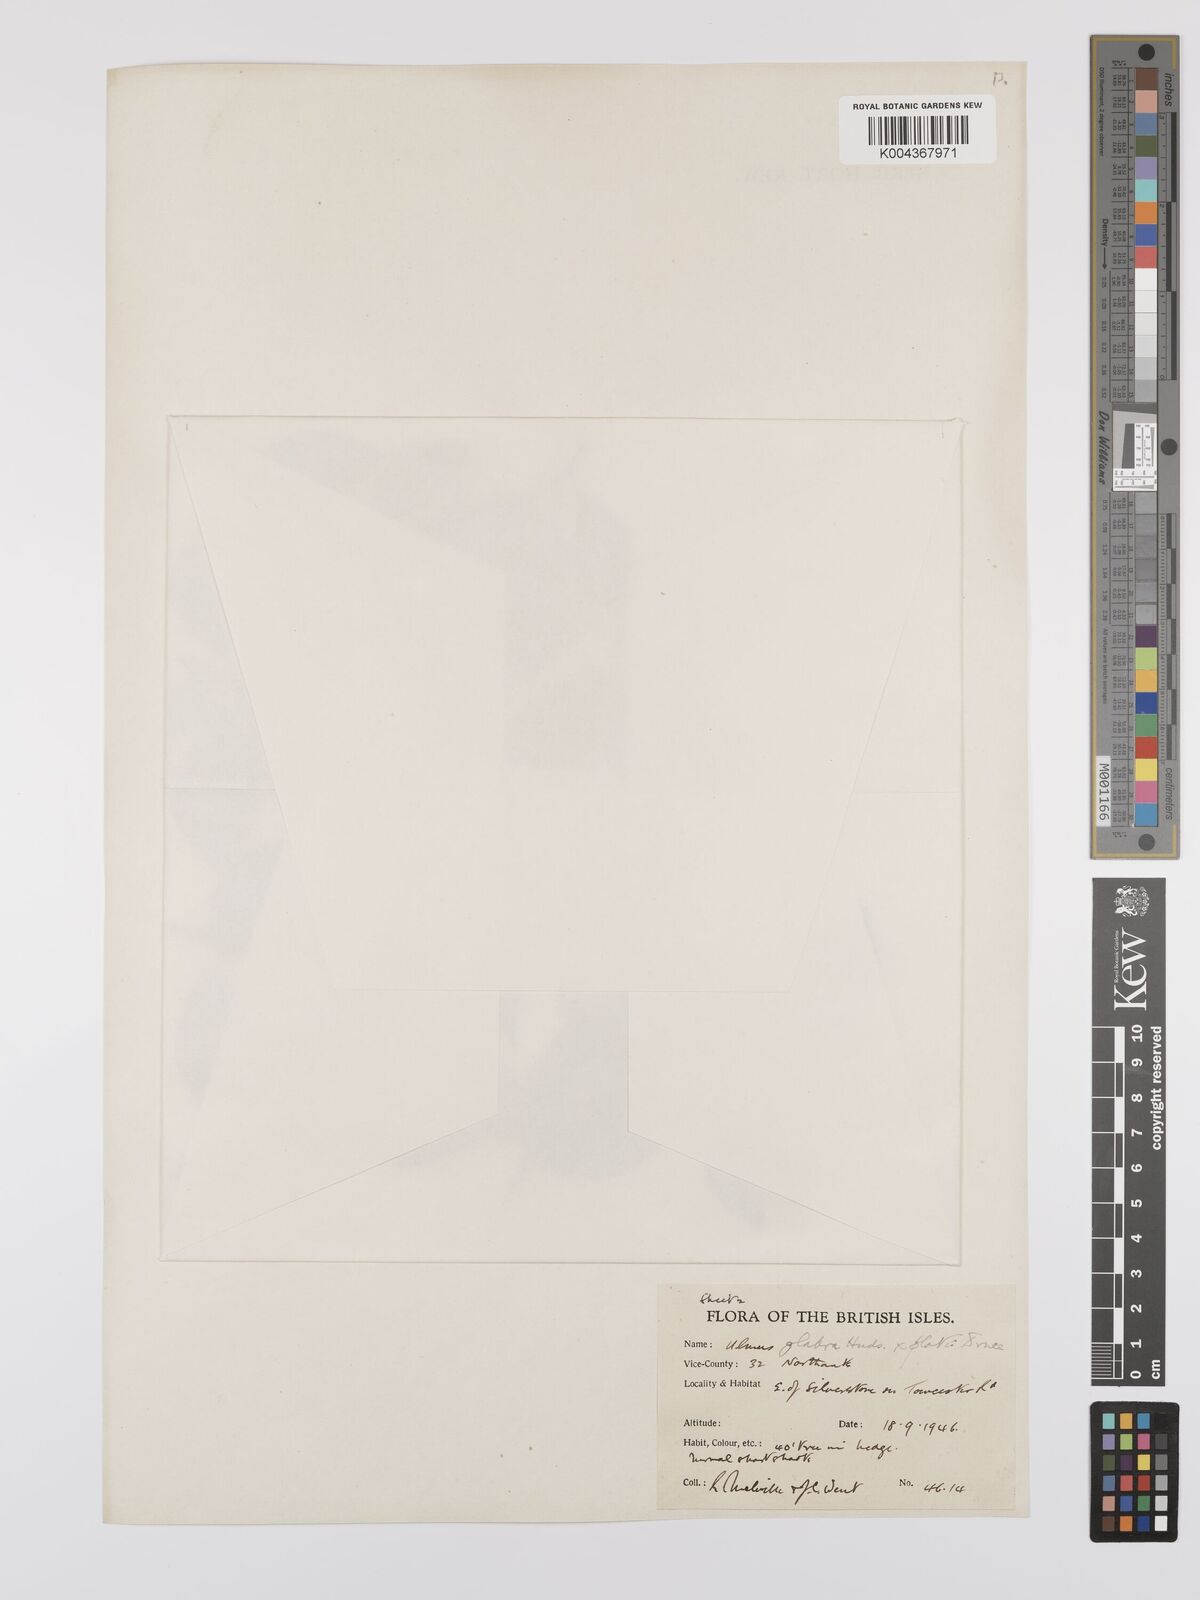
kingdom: Plantae
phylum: Tracheophyta
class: Magnoliopsida
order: Rosales
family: Ulmaceae
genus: Ulmus
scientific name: Ulmus minor
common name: Small-leaved elm
